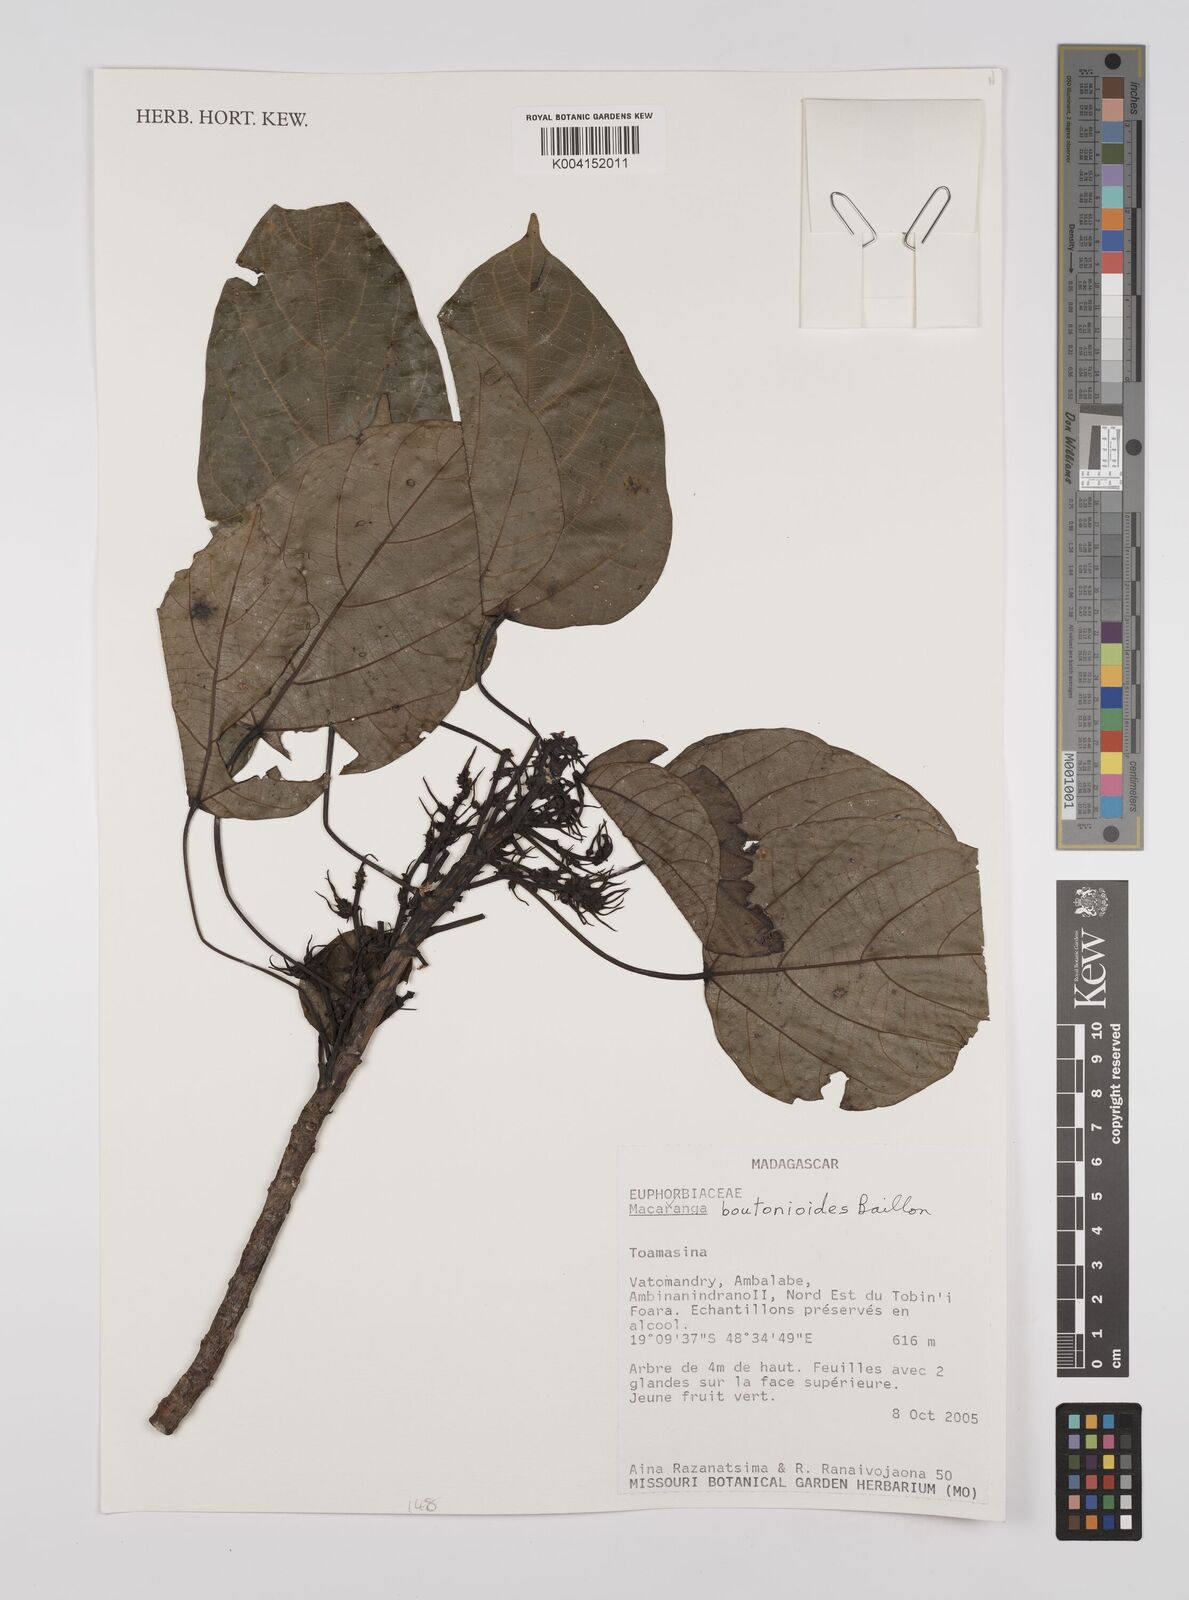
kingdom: Plantae
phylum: Tracheophyta
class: Magnoliopsida
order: Malpighiales
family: Euphorbiaceae
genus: Macaranga
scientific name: Macaranga
